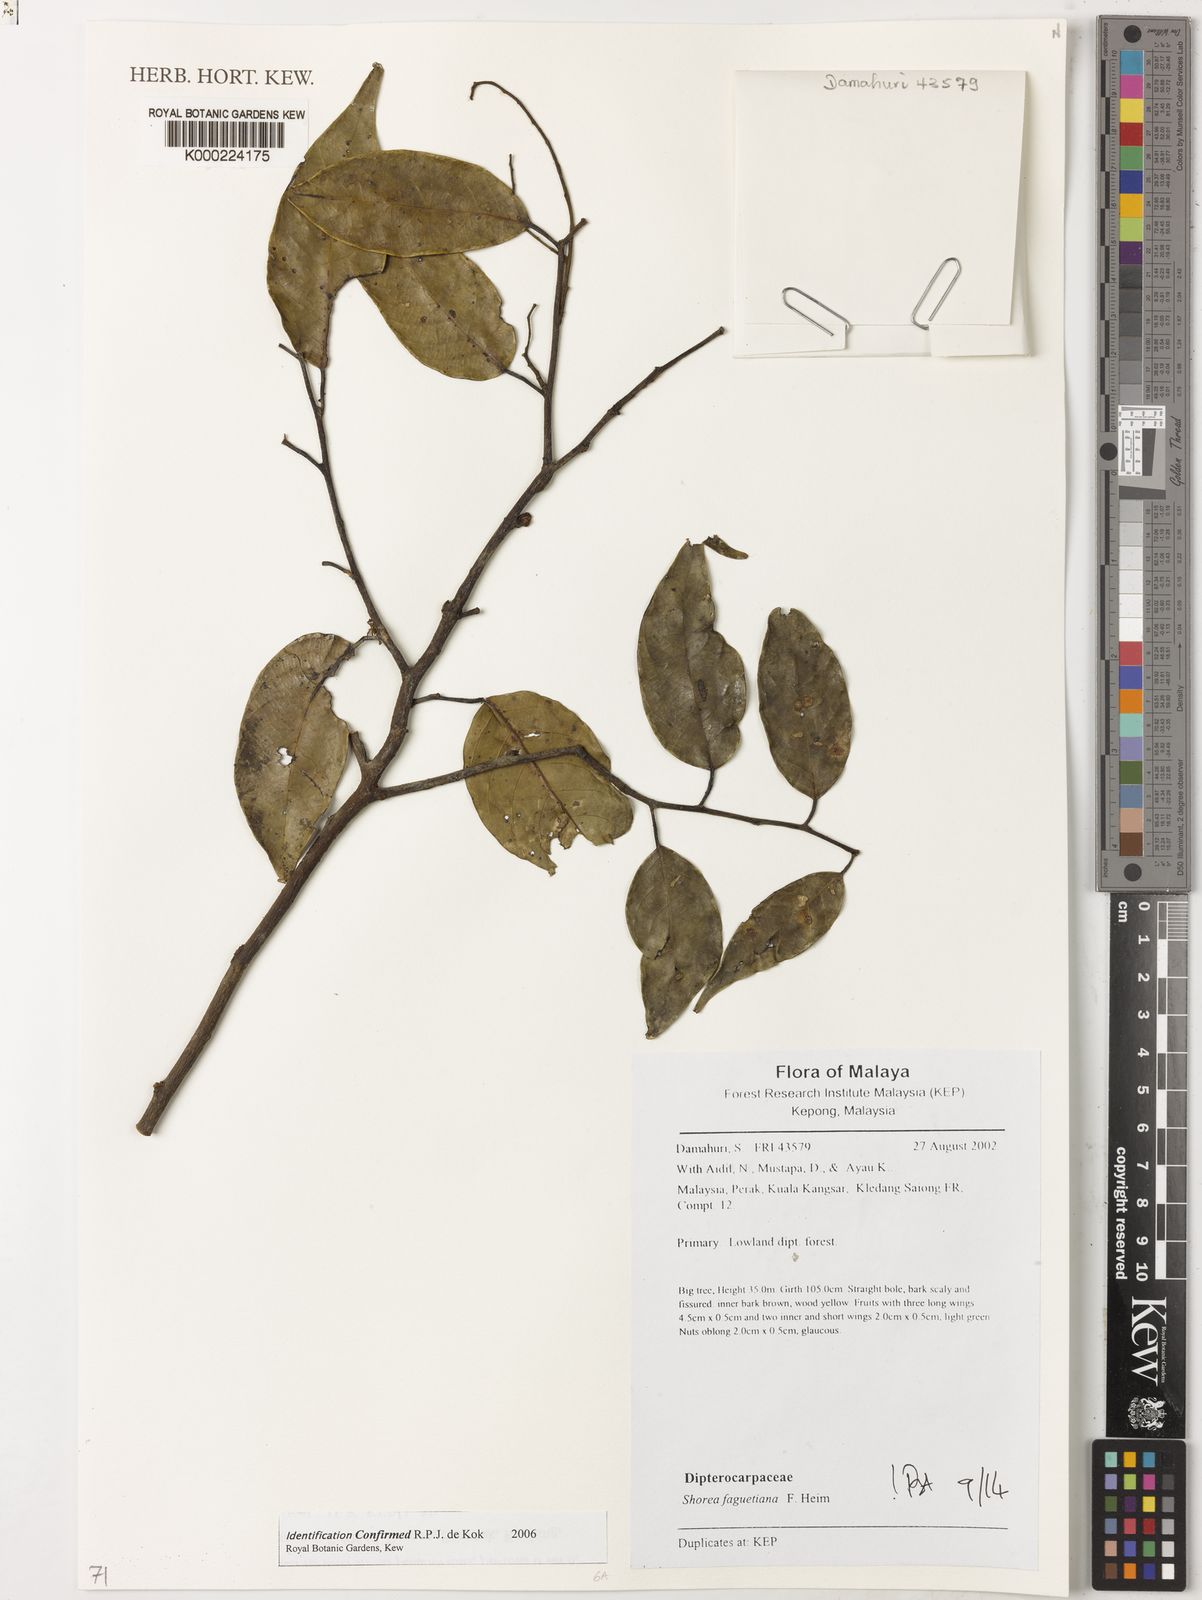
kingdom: Plantae
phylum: Tracheophyta
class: Magnoliopsida
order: Malvales
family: Dipterocarpaceae
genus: Dipterocarpus
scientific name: Dipterocarpus
